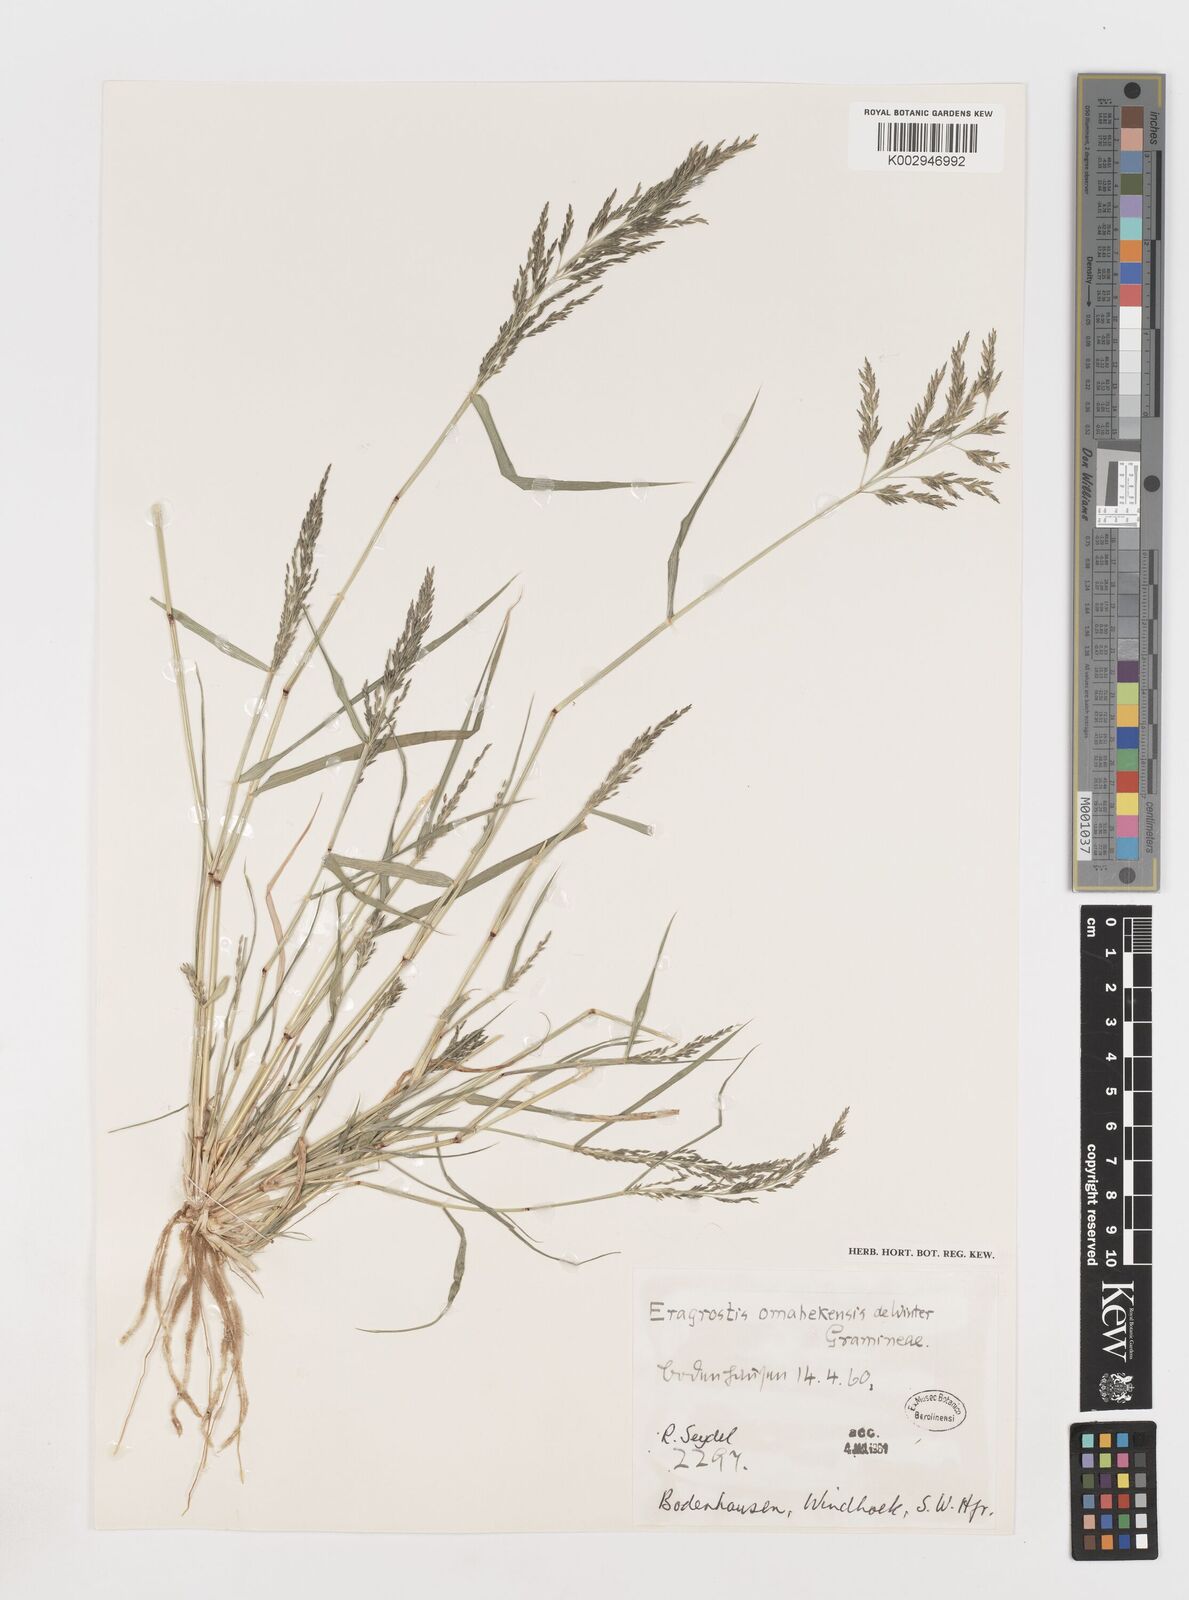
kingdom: Plantae
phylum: Tracheophyta
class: Liliopsida
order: Poales
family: Poaceae
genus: Eragrostis
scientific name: Eragrostis omahekensis
